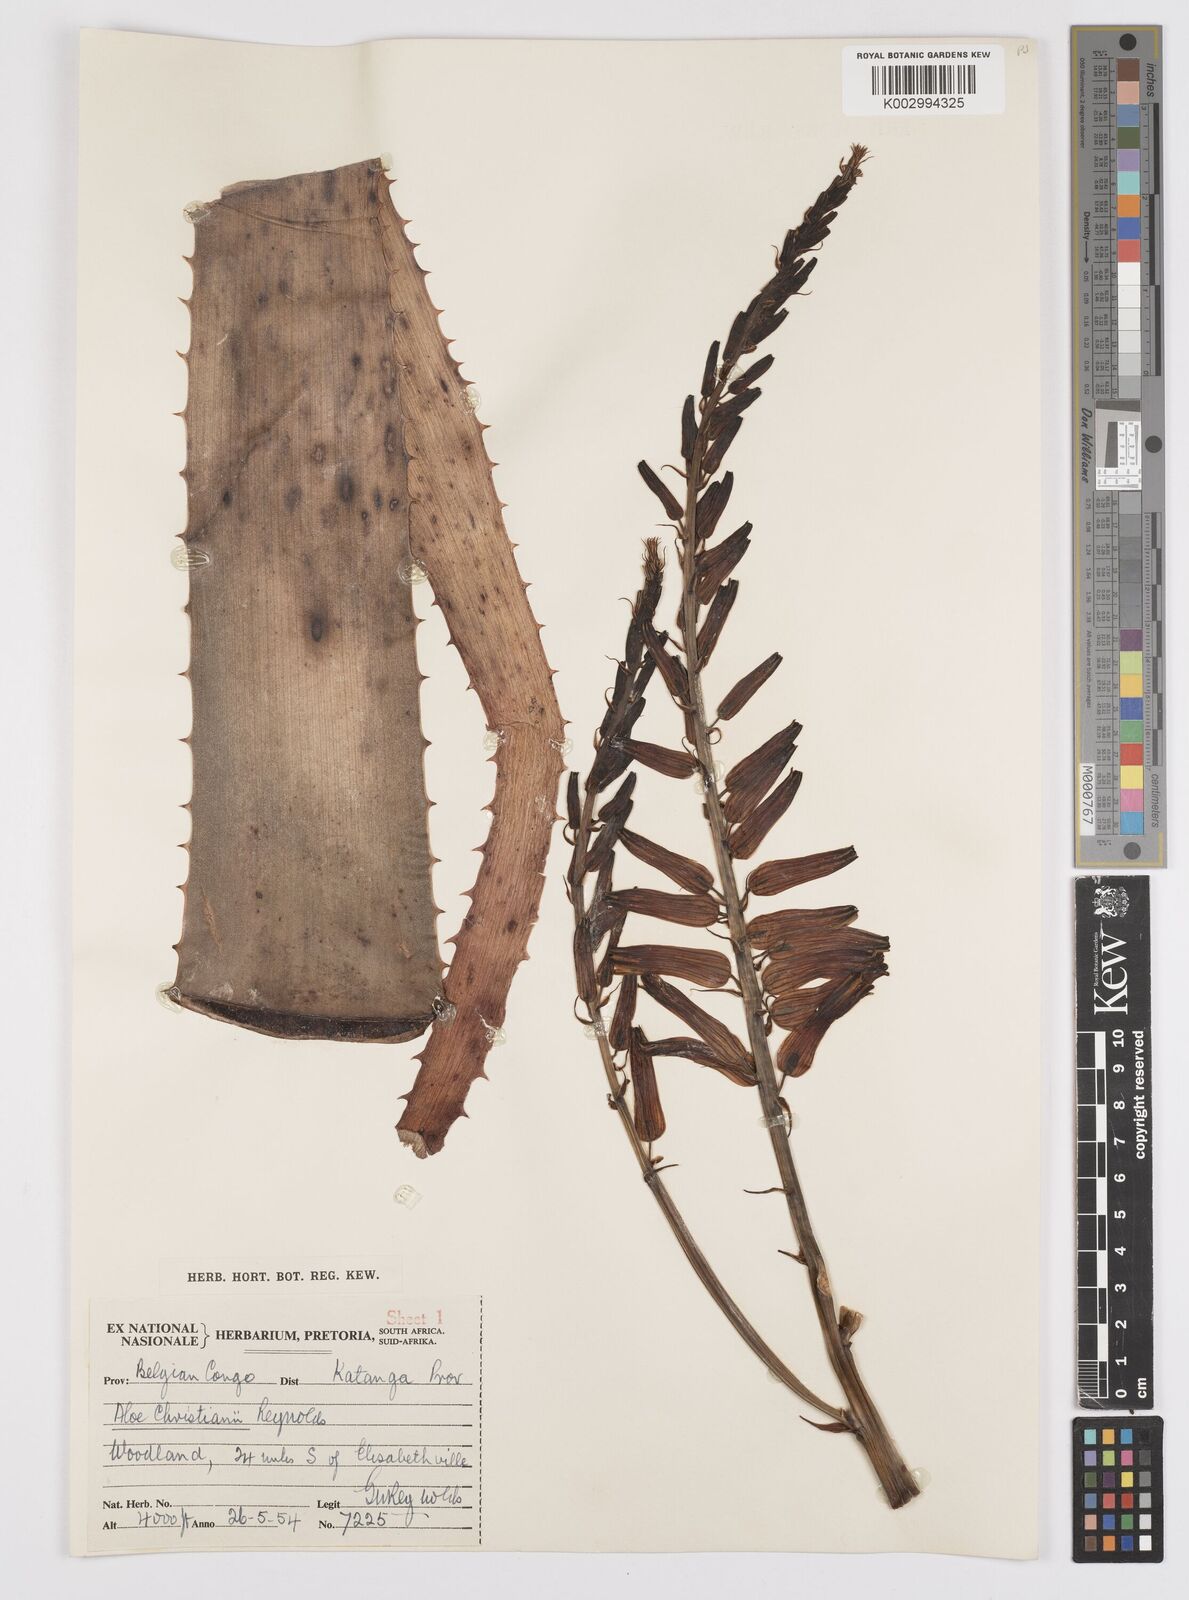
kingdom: Plantae
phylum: Tracheophyta
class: Liliopsida
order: Asparagales
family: Asphodelaceae
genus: Aloe
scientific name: Aloe christianii
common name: Basil christian's aloe
